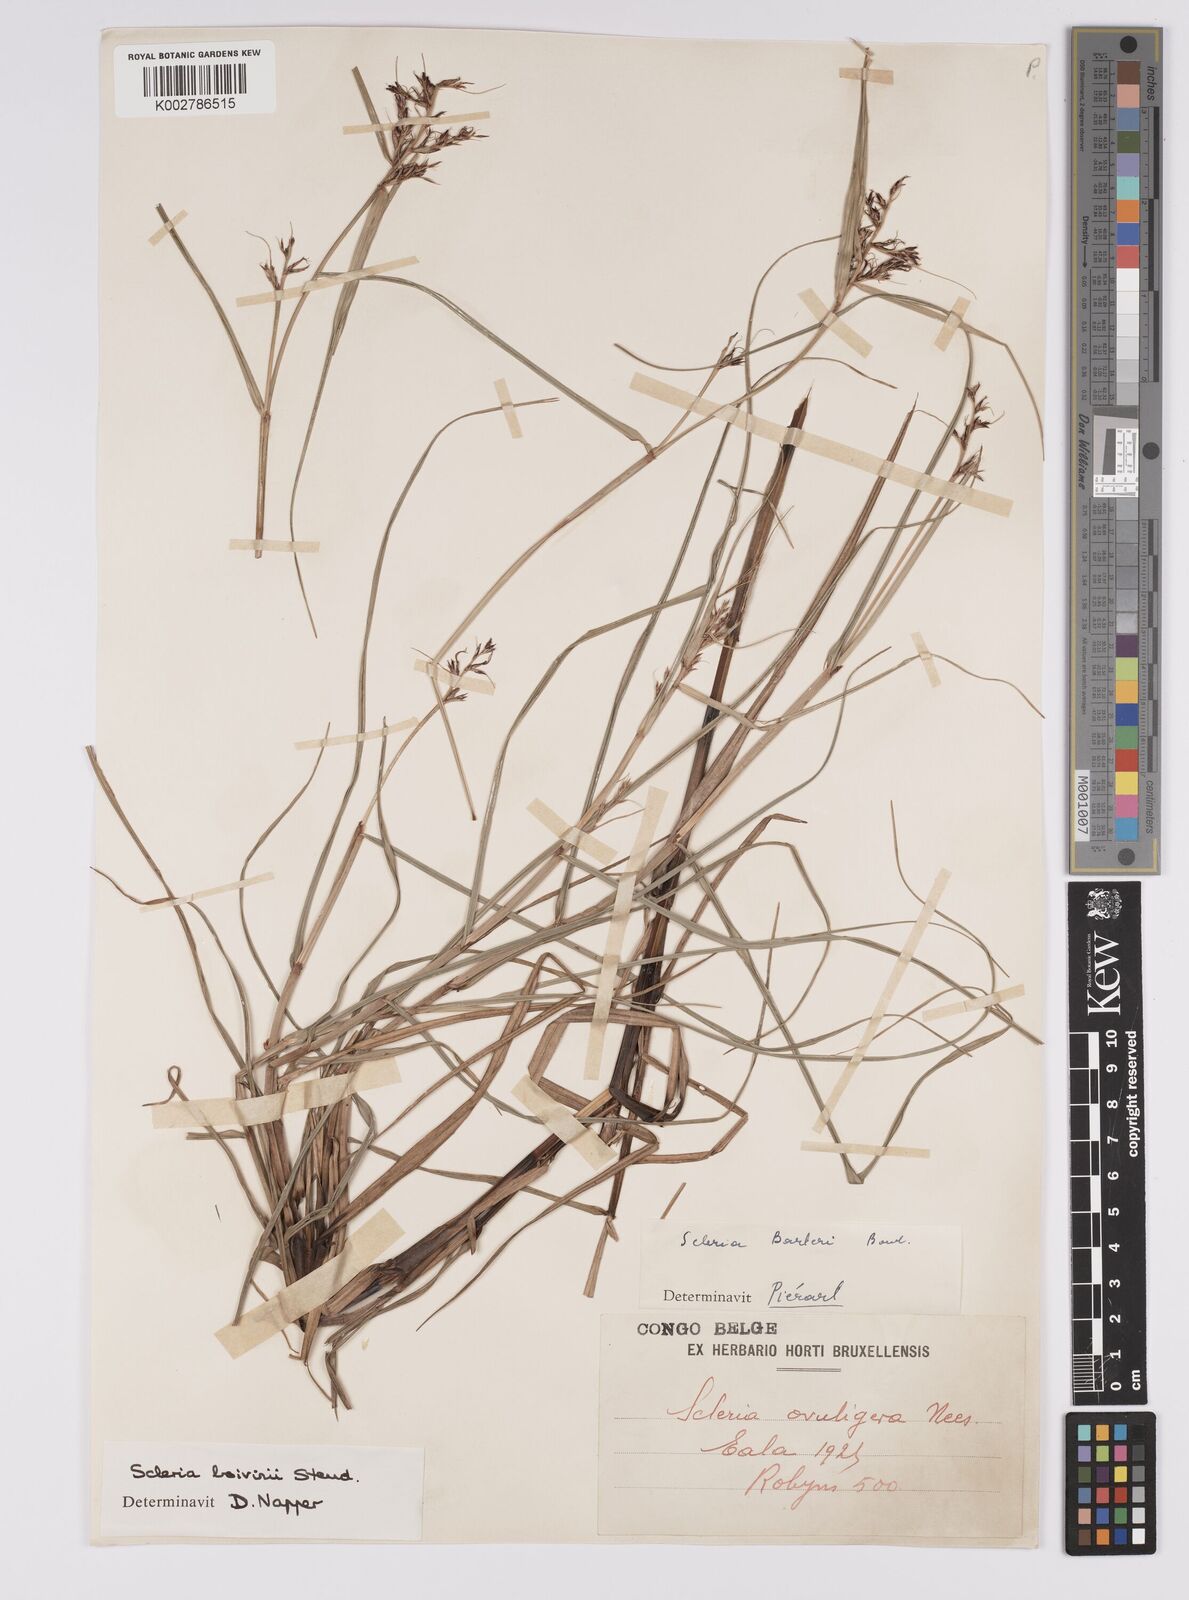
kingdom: Plantae
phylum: Tracheophyta
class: Liliopsida
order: Poales
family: Cyperaceae
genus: Scleria
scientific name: Scleria boivinii
